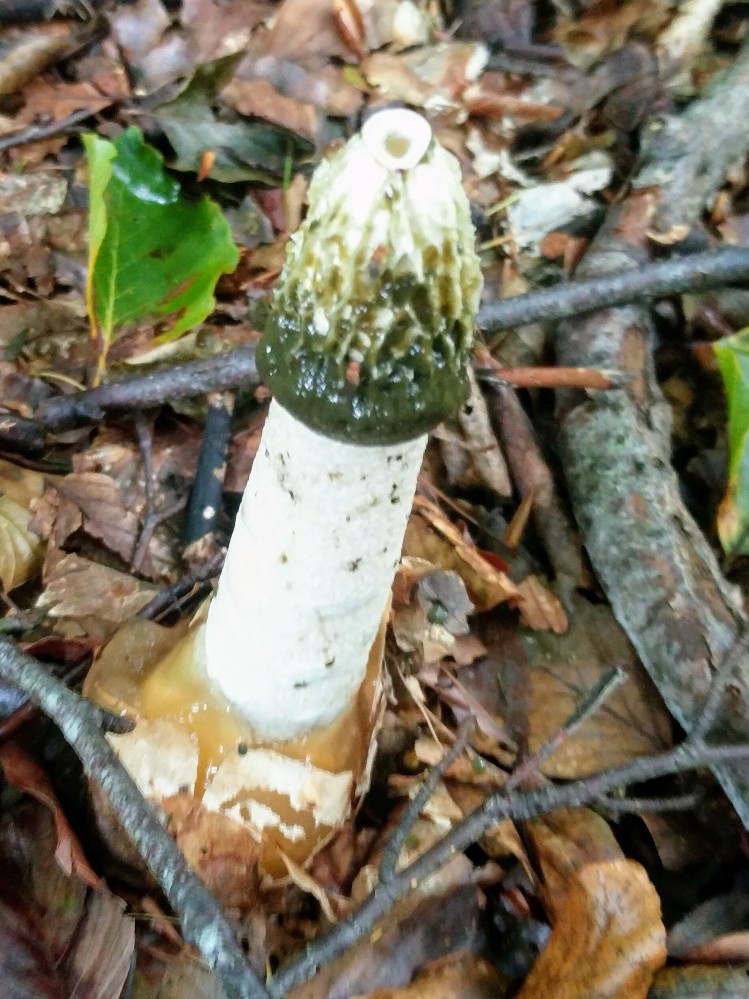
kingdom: Fungi
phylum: Basidiomycota
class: Agaricomycetes
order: Phallales
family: Phallaceae
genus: Phallus
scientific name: Phallus impudicus
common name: almindelig stinksvamp
